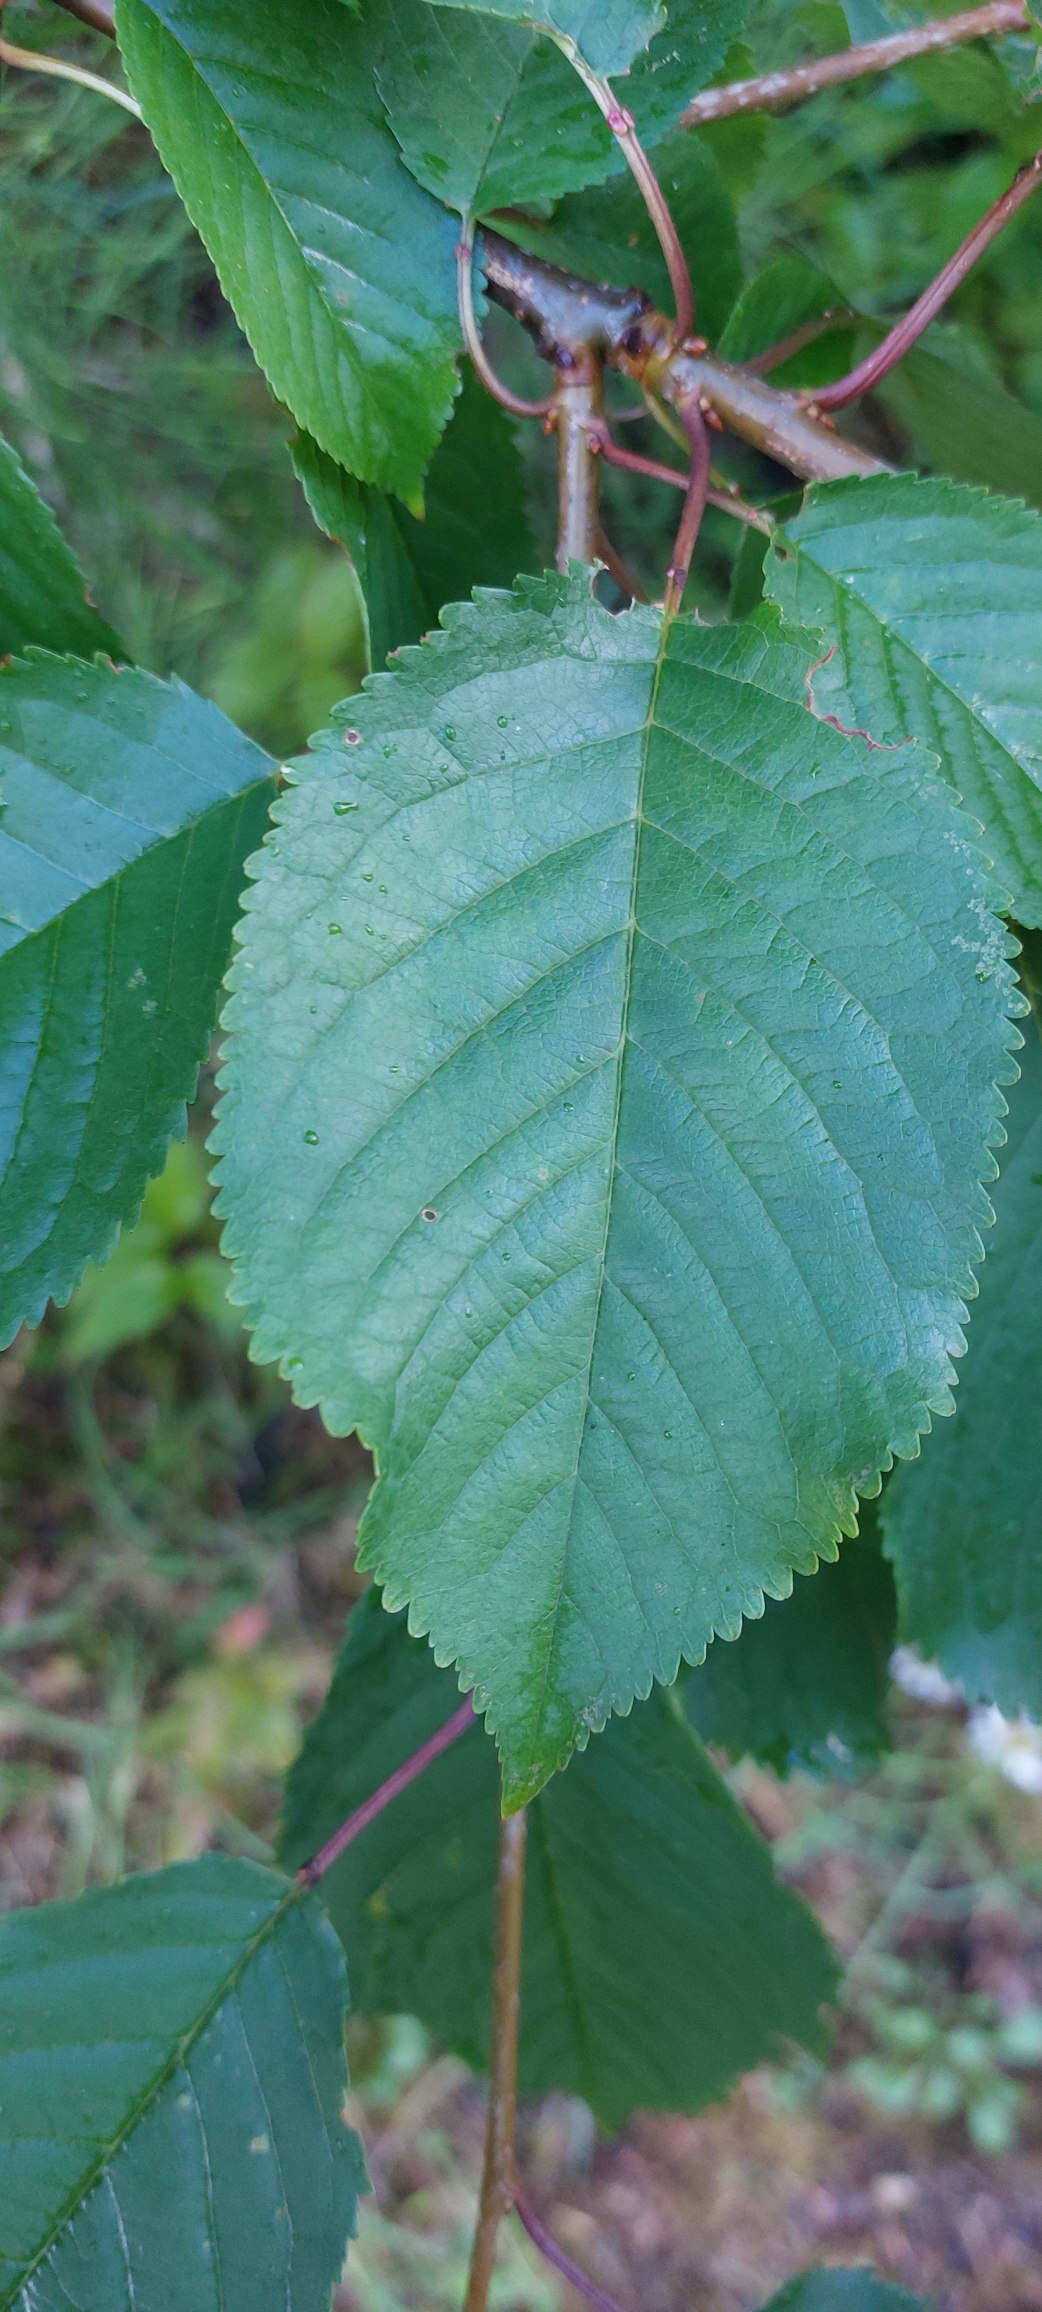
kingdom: Plantae
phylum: Tracheophyta
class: Magnoliopsida
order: Rosales
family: Rosaceae
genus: Prunus
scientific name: Prunus avium
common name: Fugle-kirsebær
